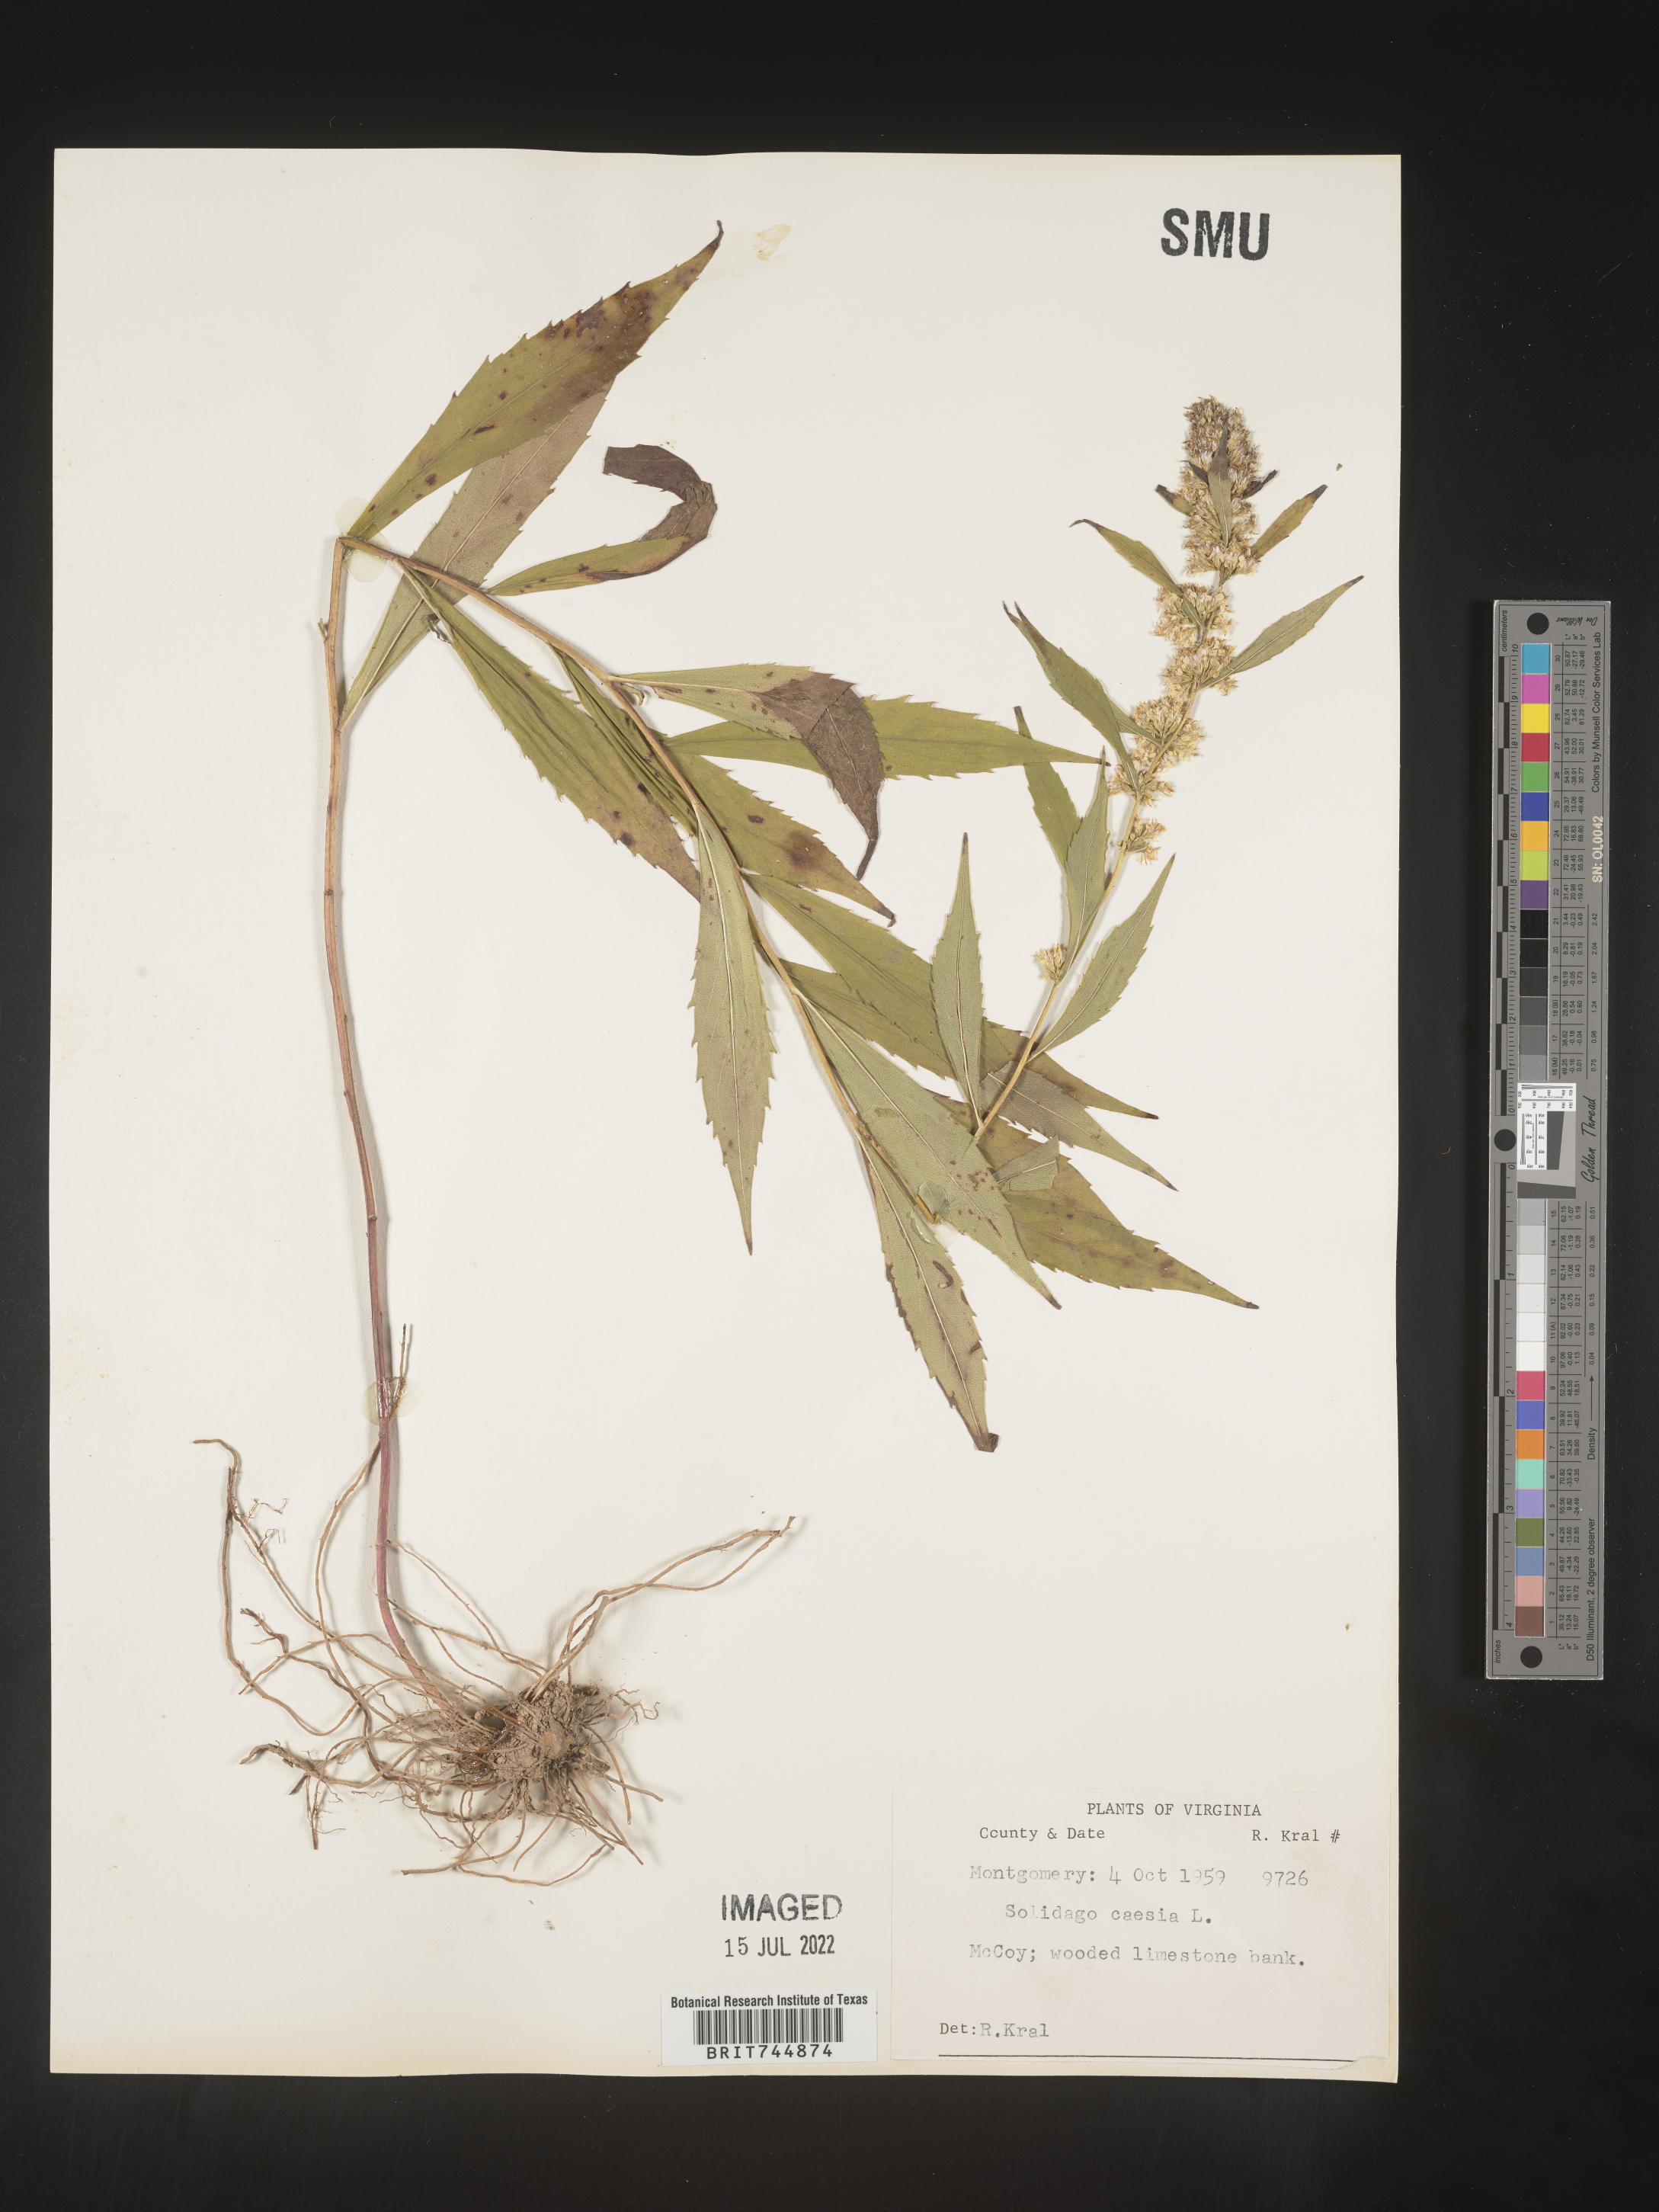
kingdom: Plantae
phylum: Tracheophyta
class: Magnoliopsida
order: Asterales
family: Asteraceae
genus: Solidago
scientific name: Solidago caesia
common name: Woodland goldenrod
